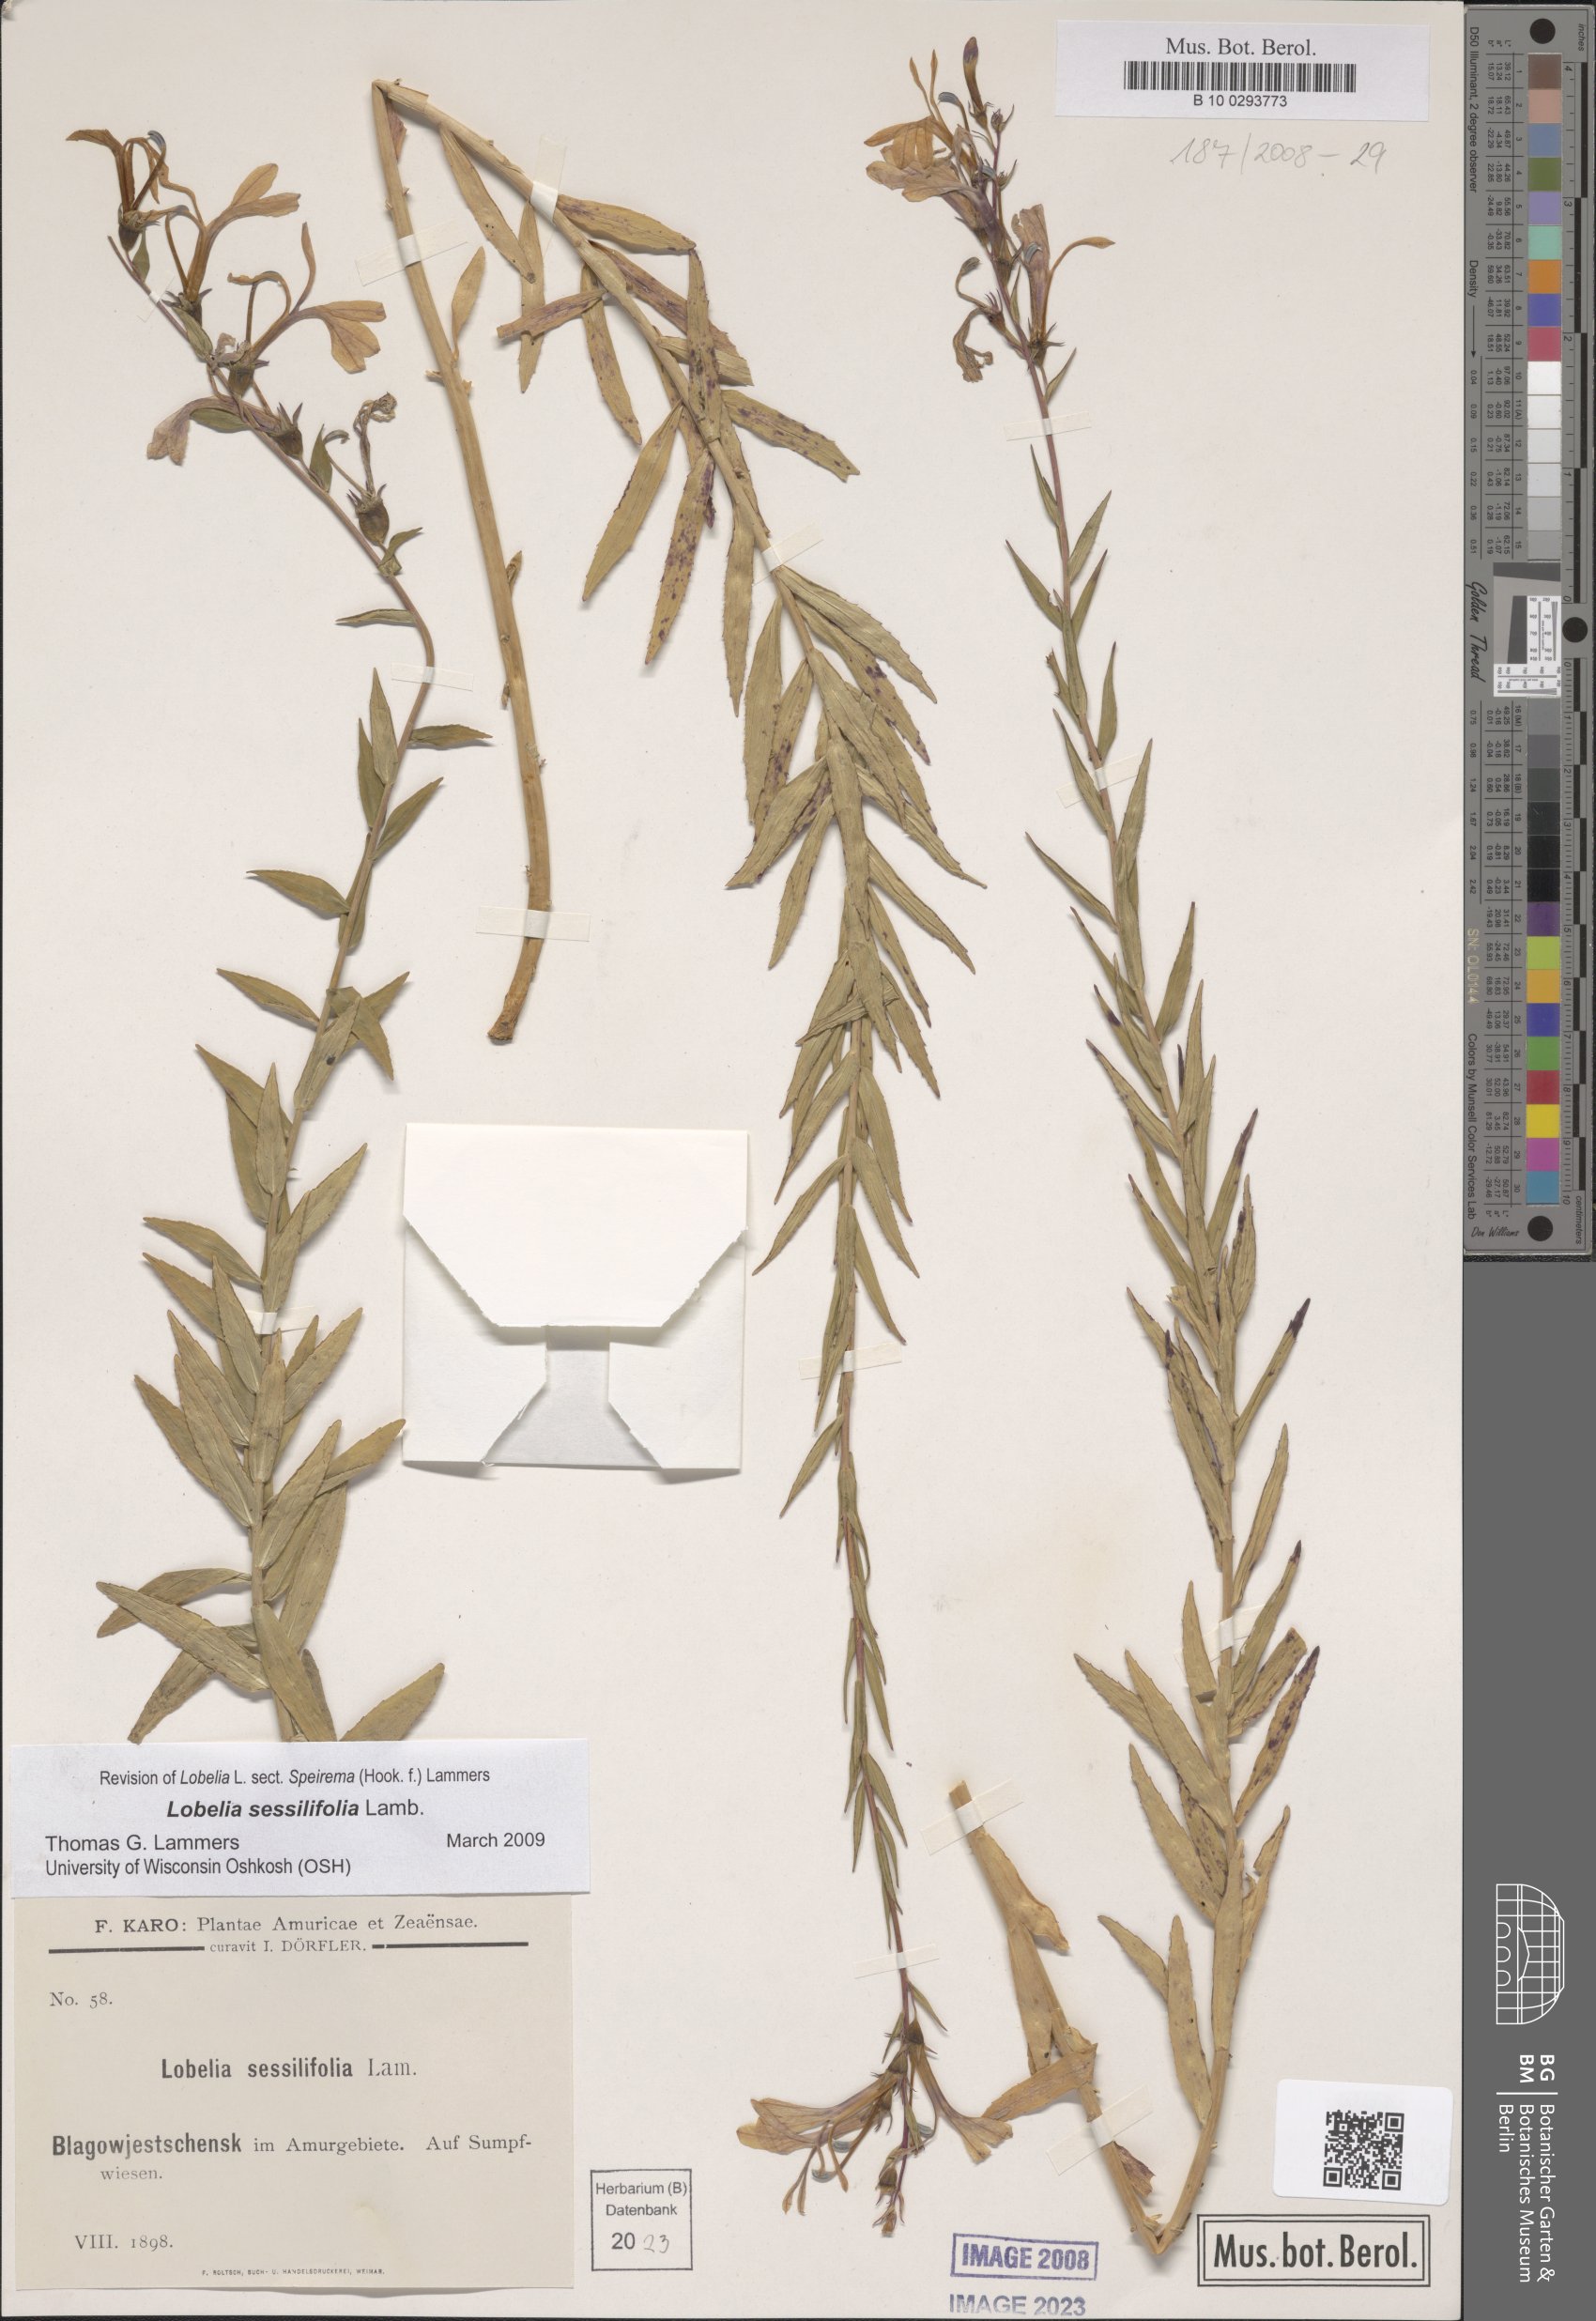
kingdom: Plantae
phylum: Tracheophyta
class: Magnoliopsida
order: Asterales
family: Campanulaceae
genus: Lobelia
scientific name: Lobelia sessilifolia
